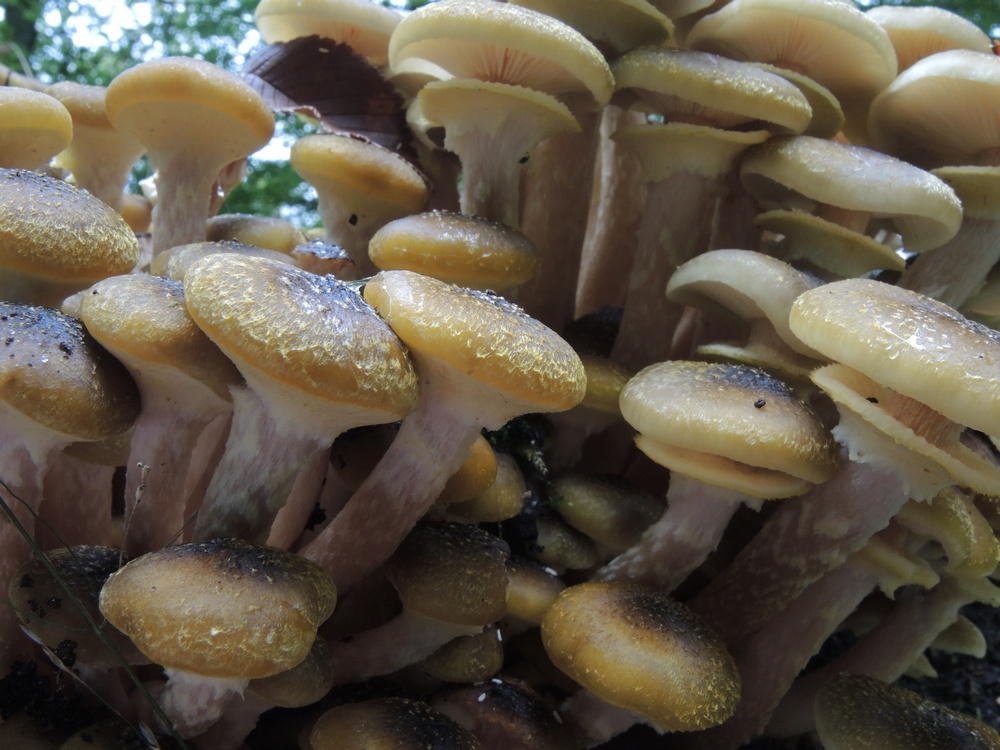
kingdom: Fungi
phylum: Basidiomycota
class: Agaricomycetes
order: Agaricales
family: Physalacriaceae
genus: Armillaria
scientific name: Armillaria mellea
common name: ægte honningsvamp
